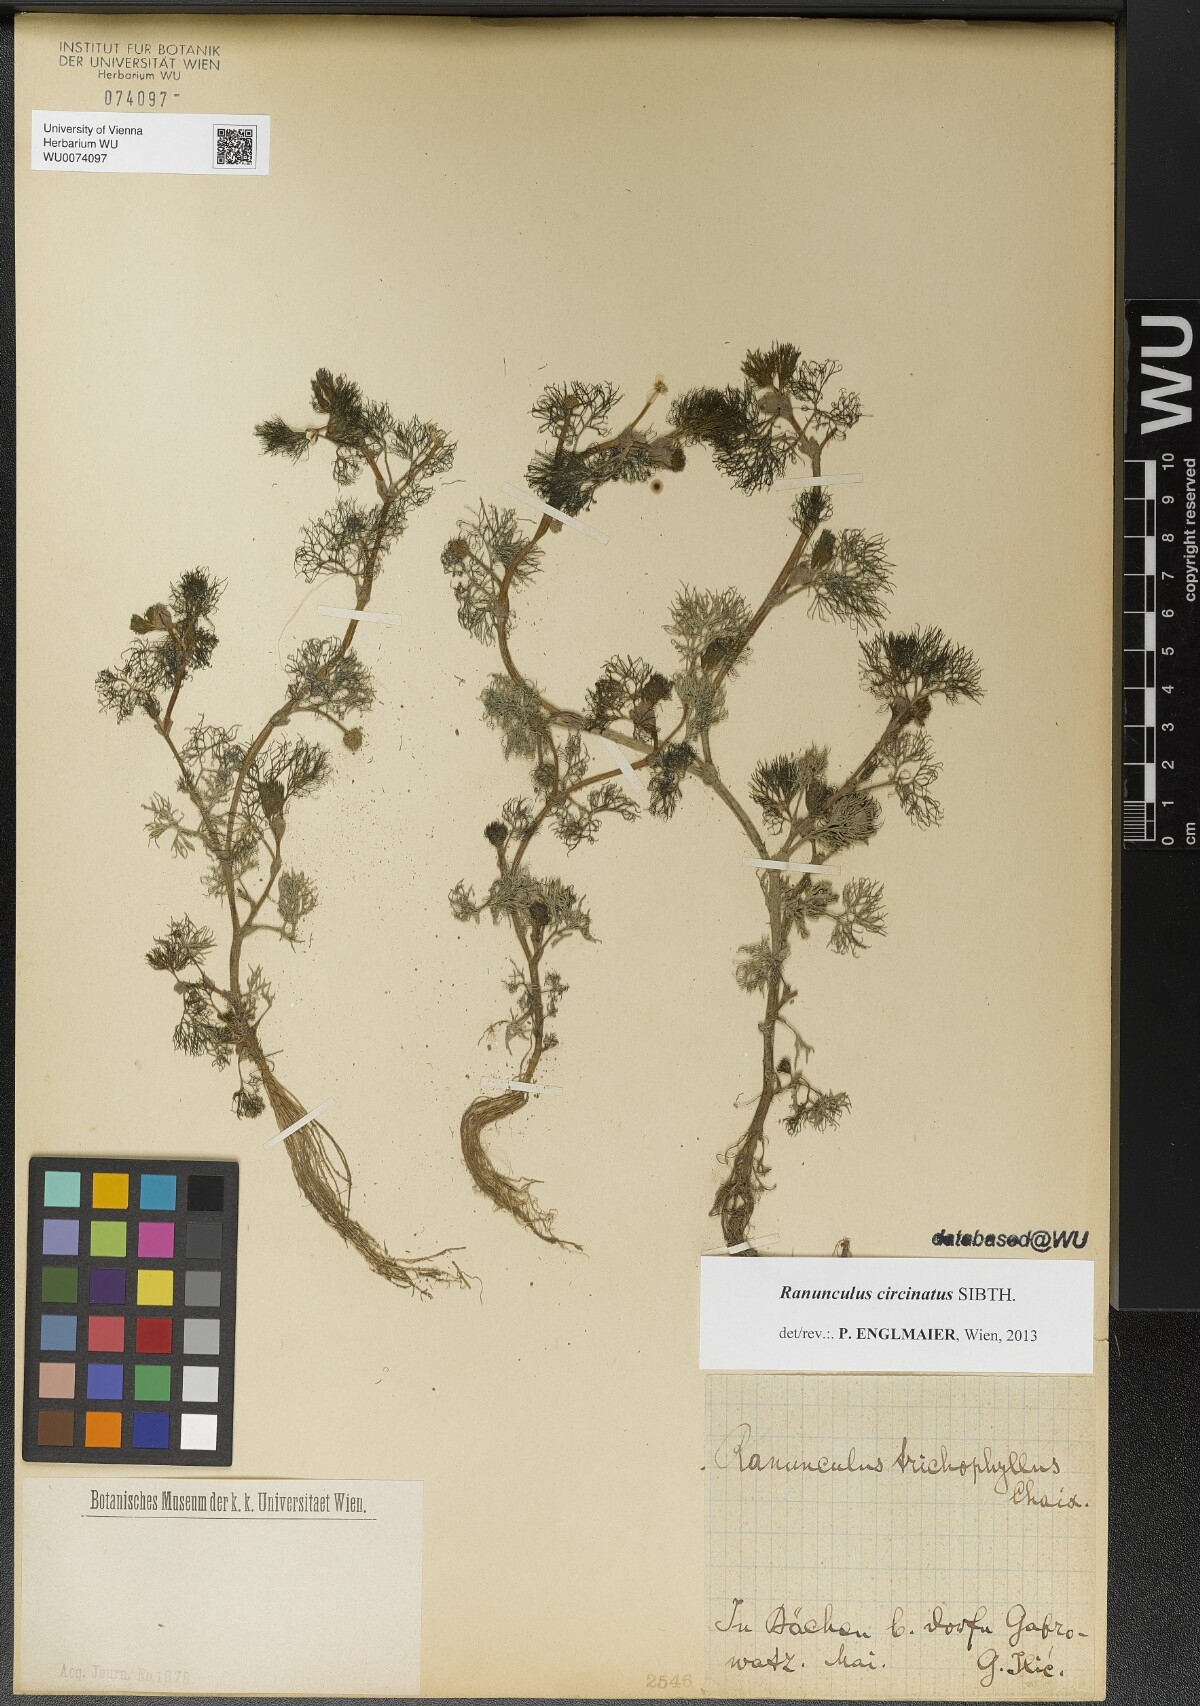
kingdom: Plantae
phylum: Tracheophyta
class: Magnoliopsida
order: Ranunculales
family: Ranunculaceae
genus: Ranunculus
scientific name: Ranunculus circinatus
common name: Fan-leaved water-crowfoot
